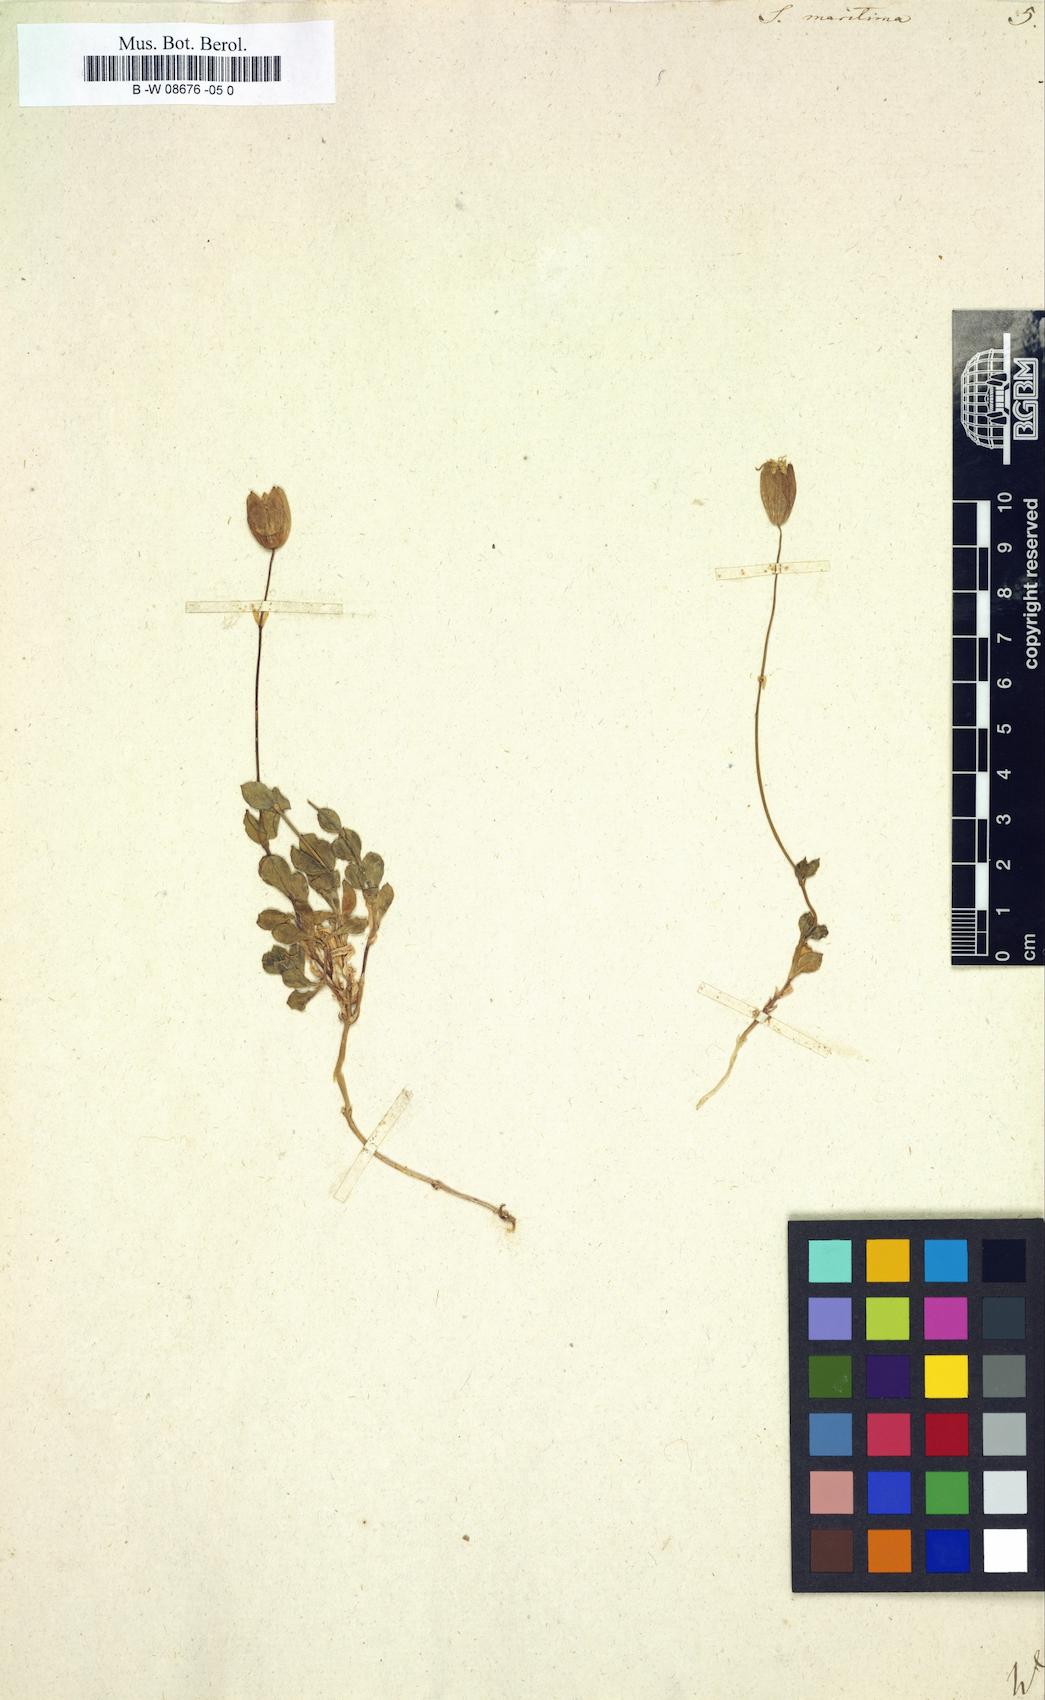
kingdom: Plantae
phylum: Tracheophyta
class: Magnoliopsida
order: Caryophyllales
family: Caryophyllaceae
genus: Silene
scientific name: Silene
